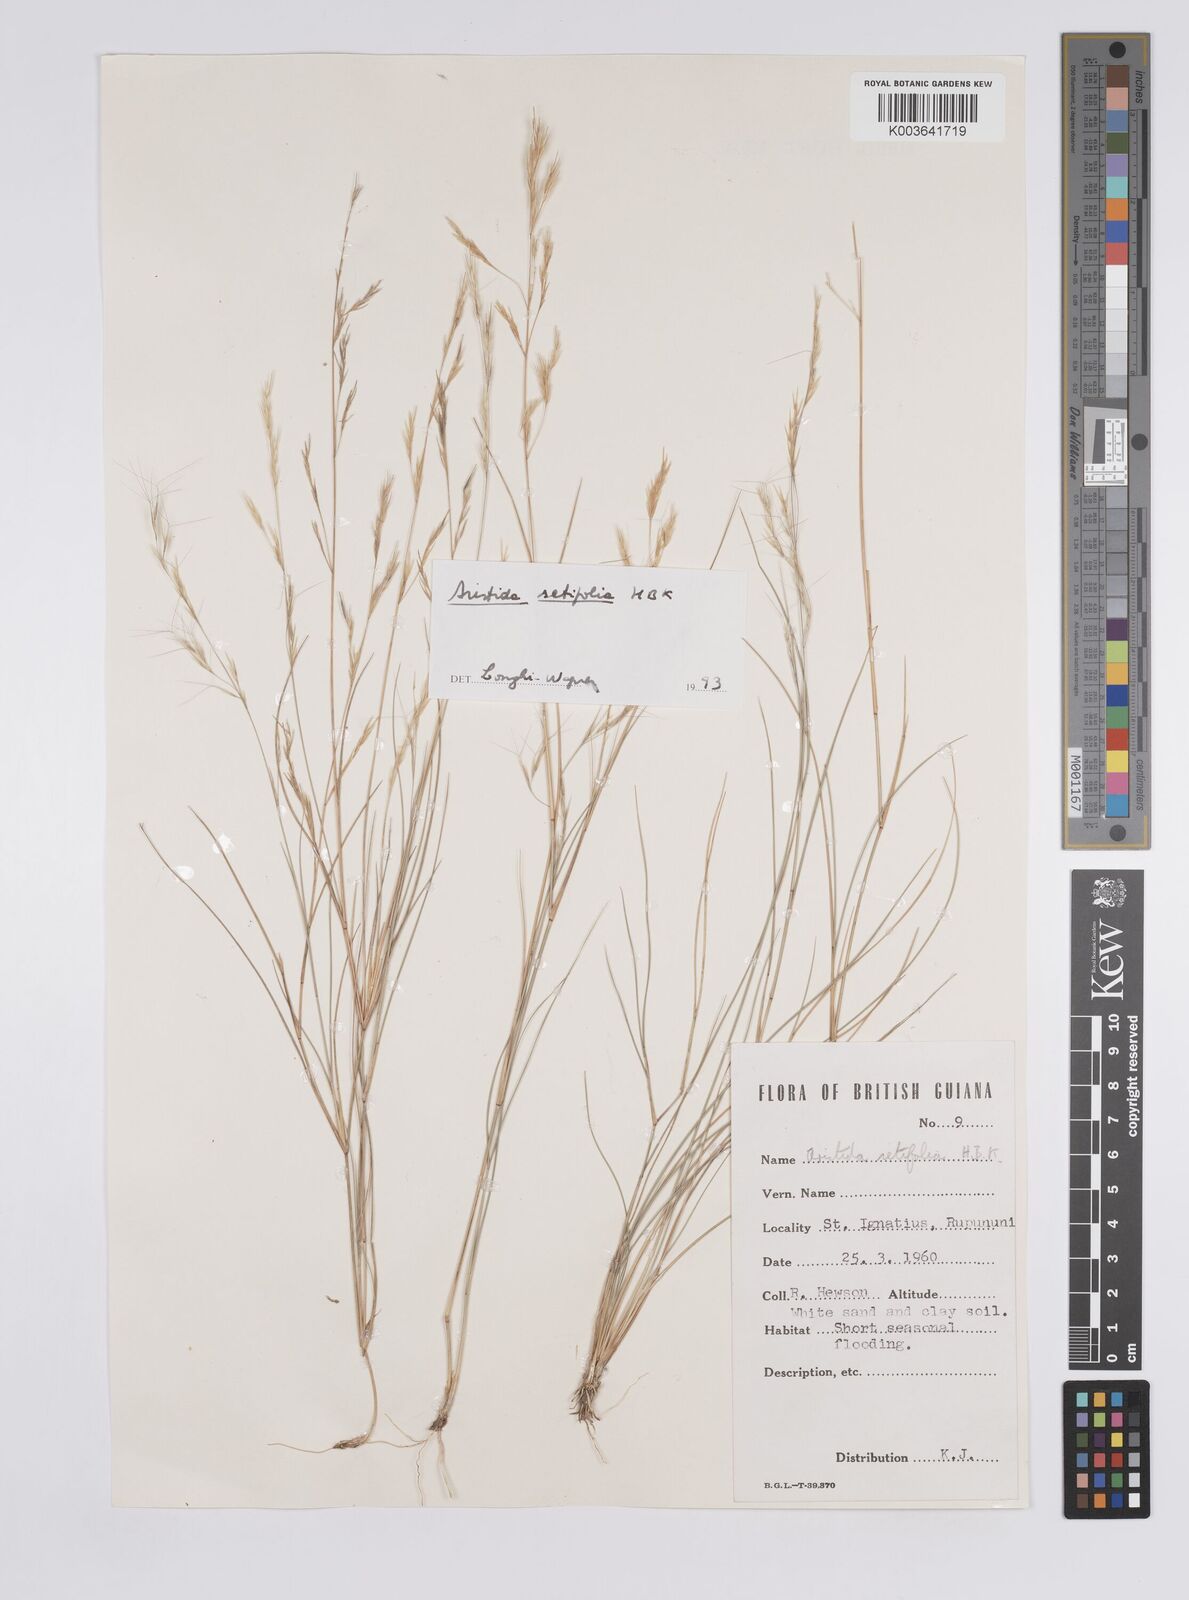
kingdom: Plantae
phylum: Tracheophyta
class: Liliopsida
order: Poales
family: Poaceae
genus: Aristida
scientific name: Aristida setifolia
